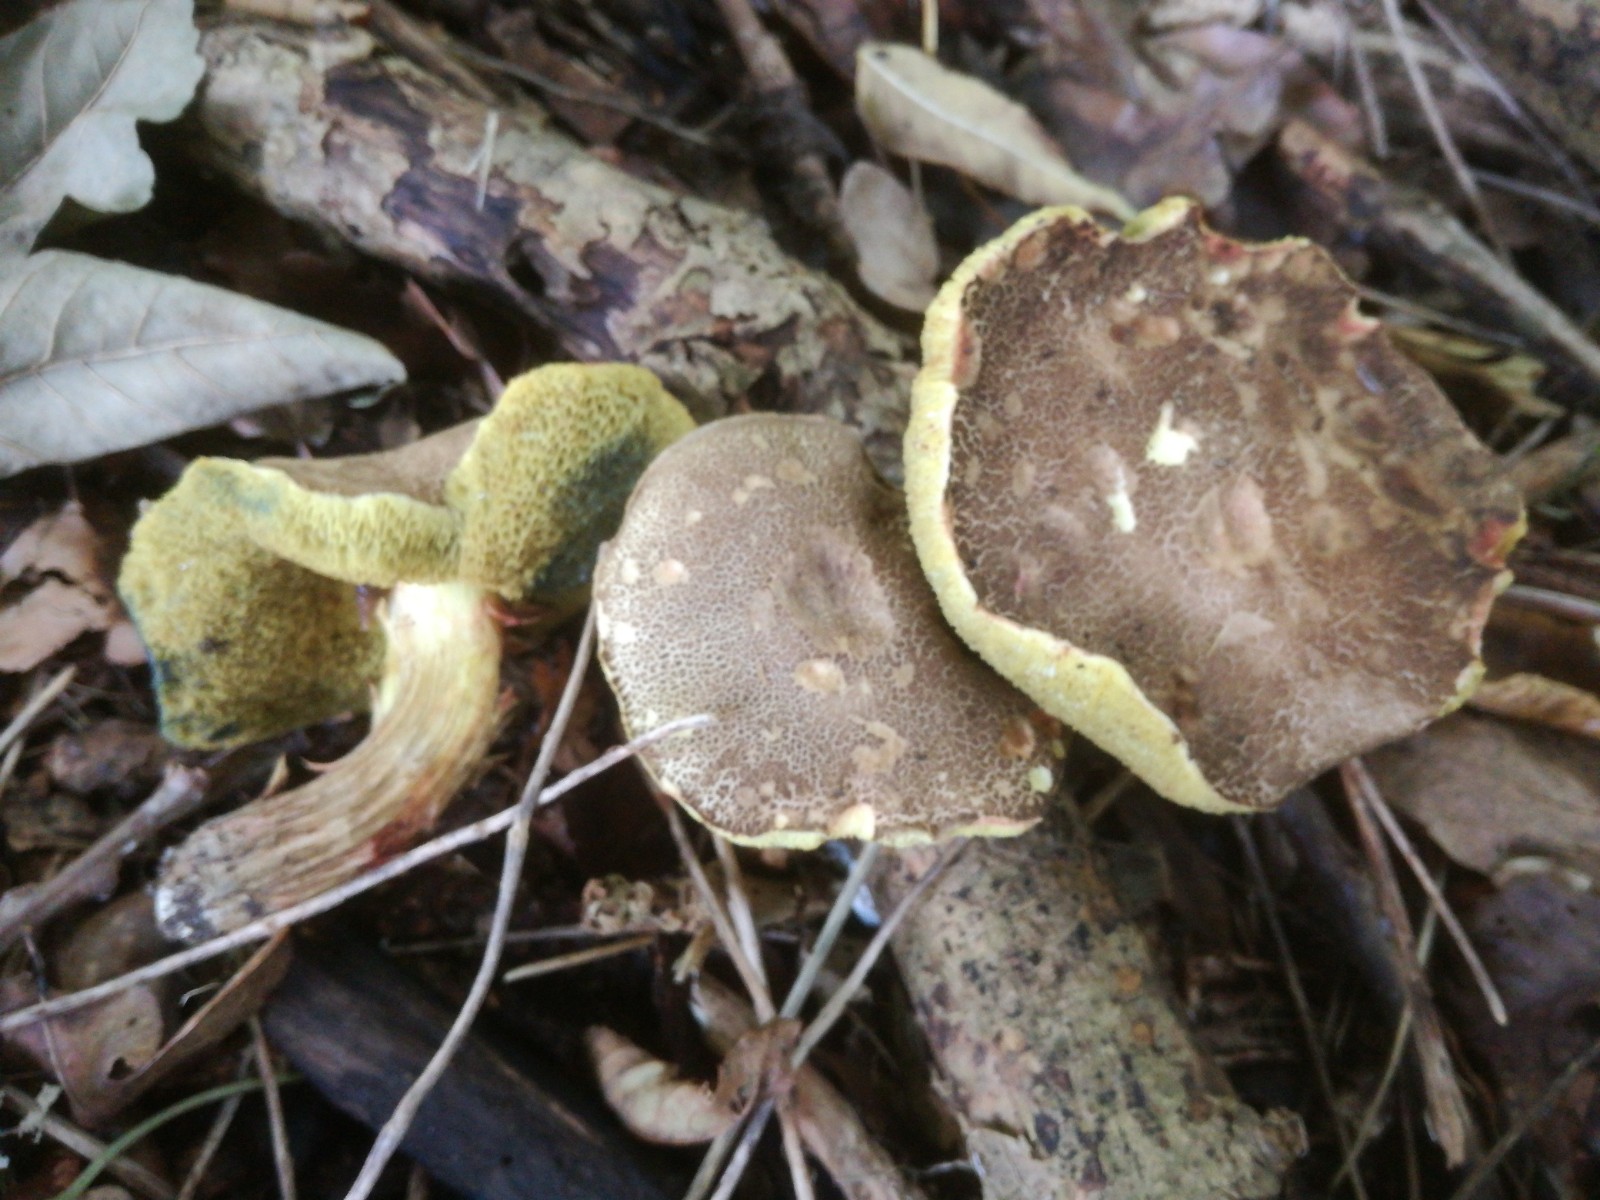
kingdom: Fungi
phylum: Basidiomycota
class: Agaricomycetes
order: Boletales
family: Boletaceae
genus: Xerocomellus
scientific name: Xerocomellus porosporus
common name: hvidsprukken rørhat
